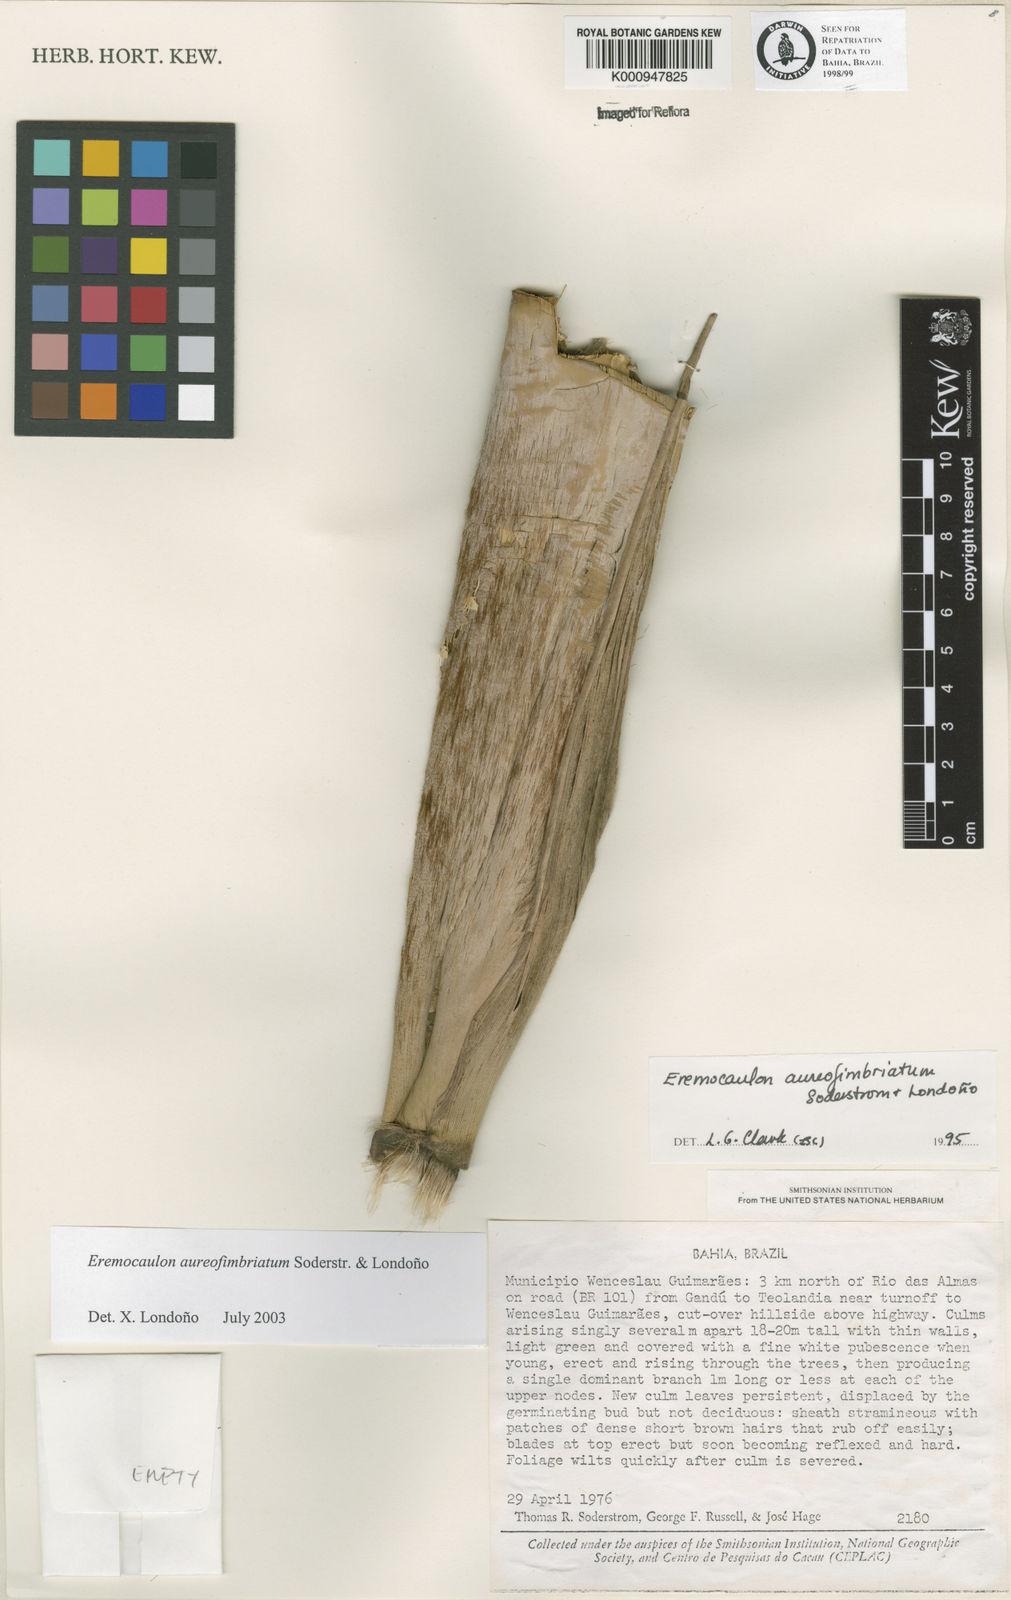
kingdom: Plantae
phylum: Tracheophyta
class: Liliopsida
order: Poales
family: Poaceae
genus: Eremocaulon
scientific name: Eremocaulon
